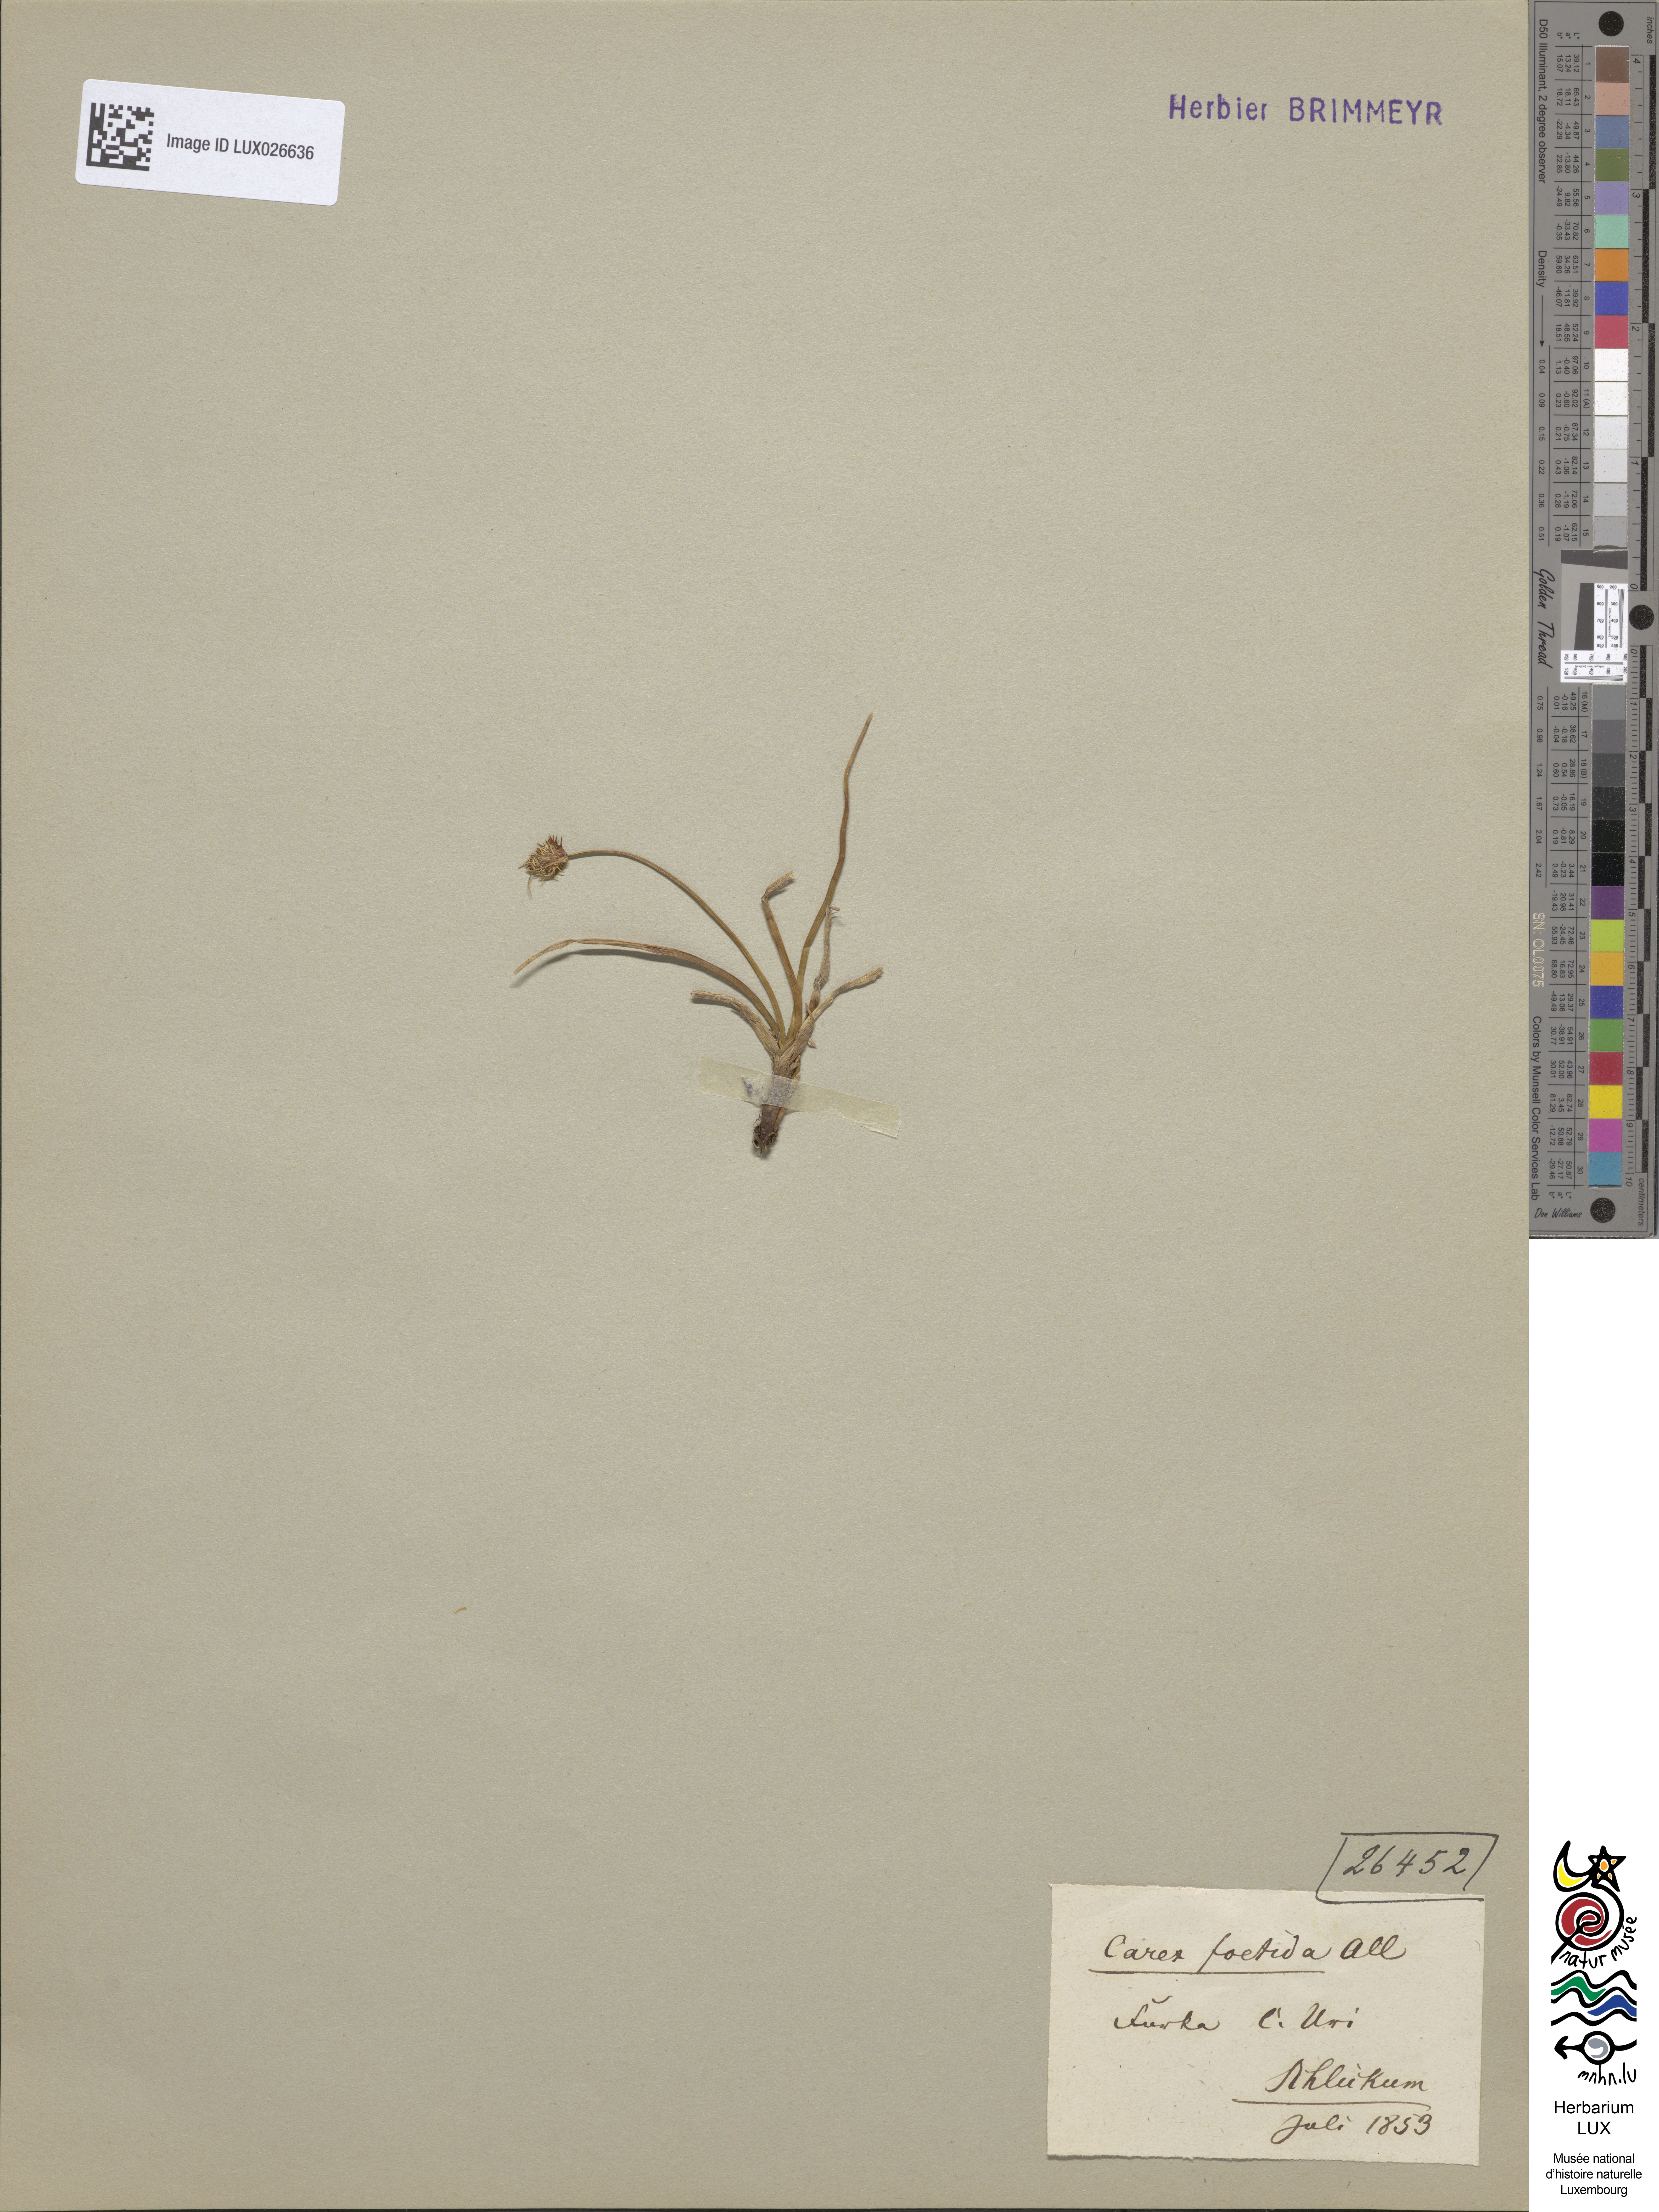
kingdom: Plantae
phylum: Tracheophyta
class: Liliopsida
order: Poales
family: Cyperaceae
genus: Carex
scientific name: Carex foetida
